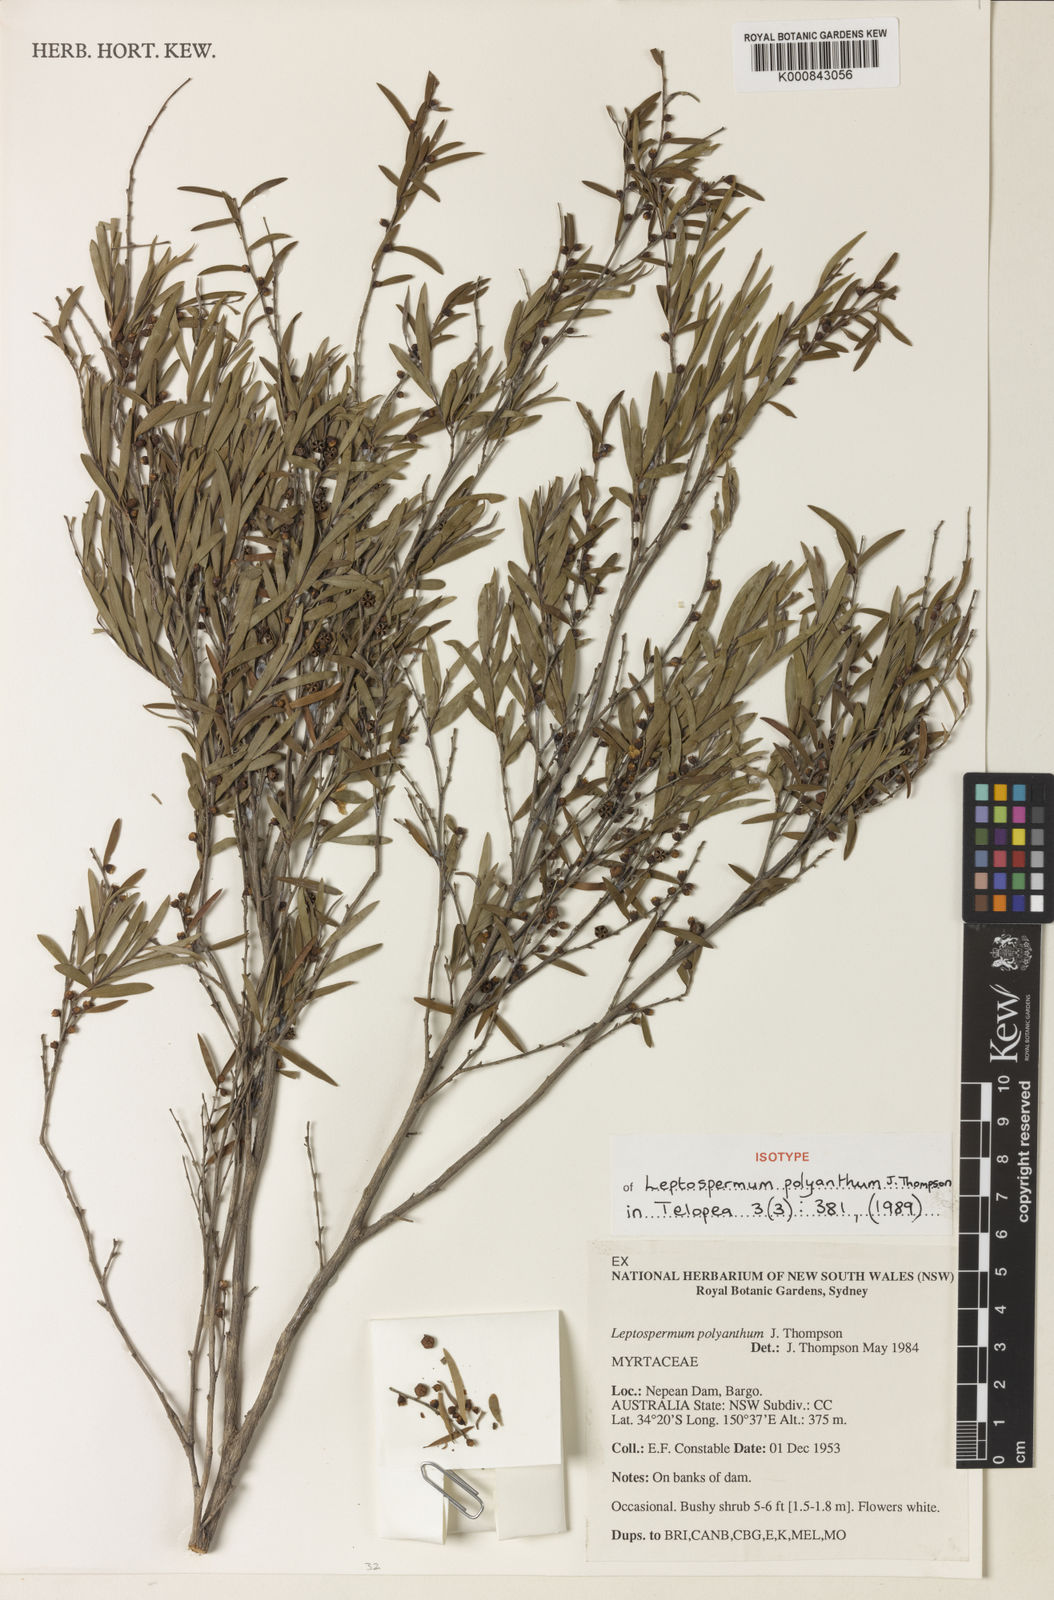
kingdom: Plantae
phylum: Tracheophyta
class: Magnoliopsida
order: Myrtales
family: Myrtaceae
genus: Leptospermum
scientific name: Leptospermum polyanthum
